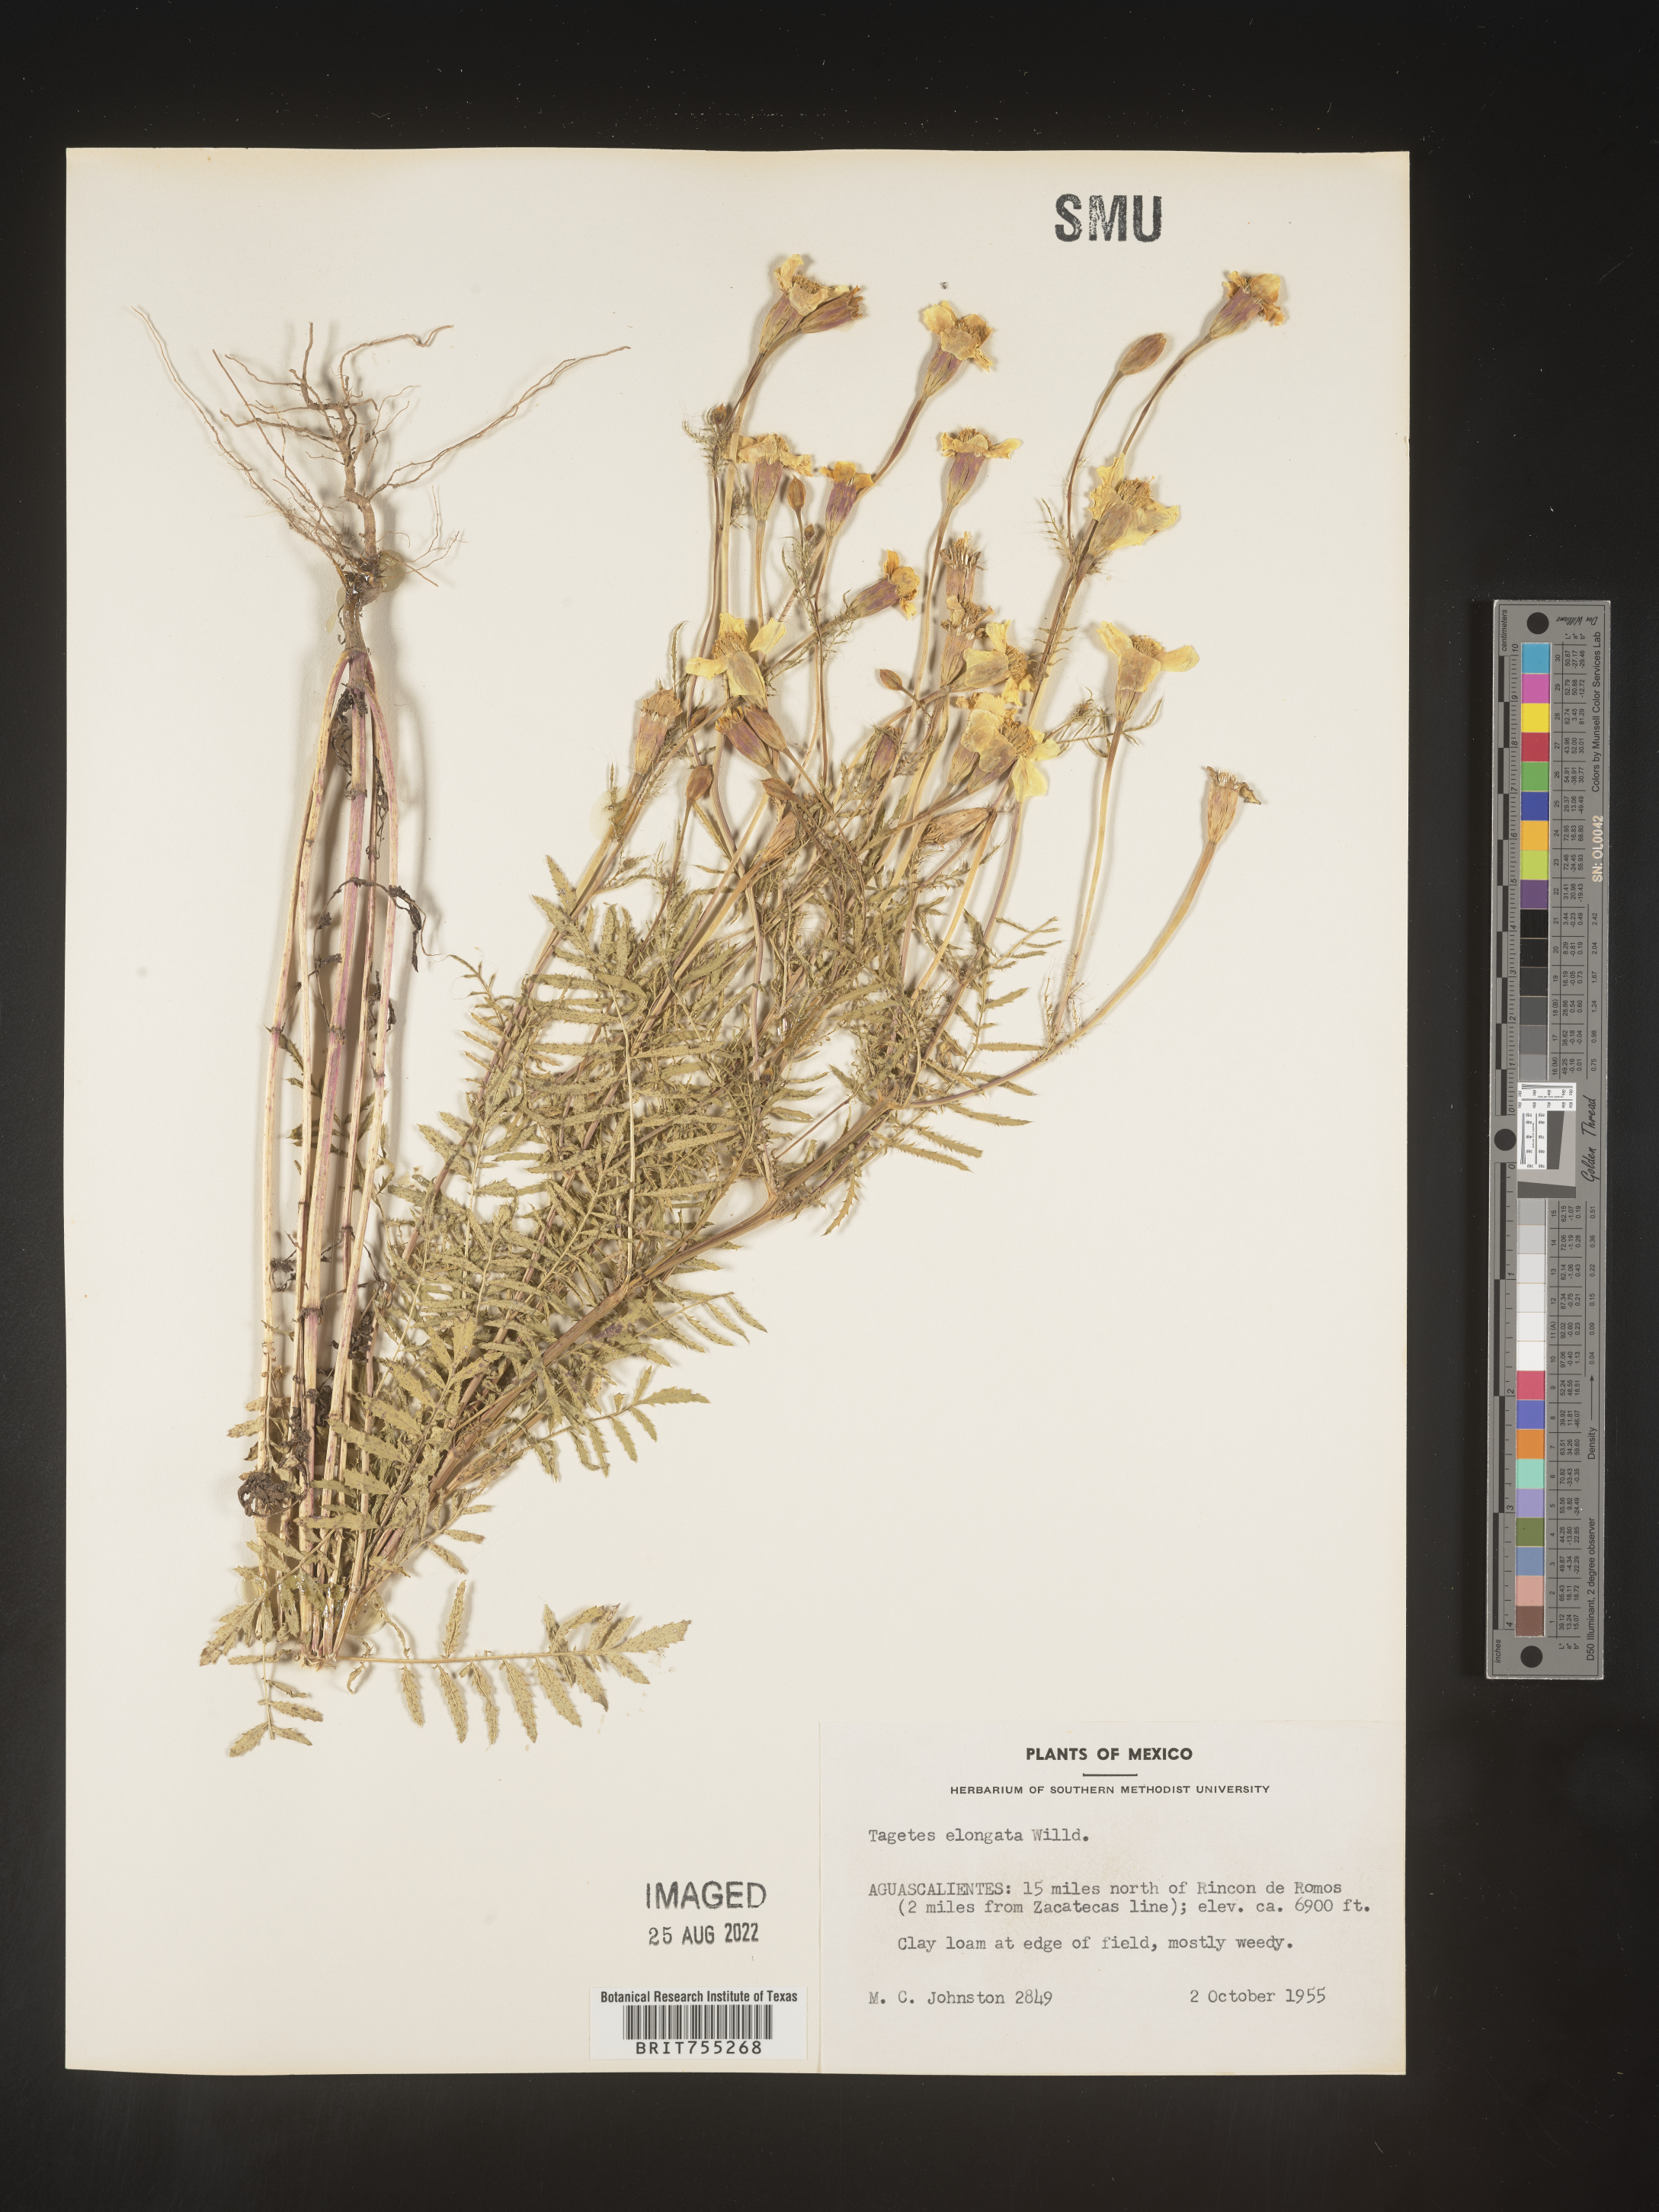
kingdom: Plantae
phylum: Tracheophyta
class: Magnoliopsida
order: Asterales
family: Asteraceae
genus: Tagetes
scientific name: Tagetes
